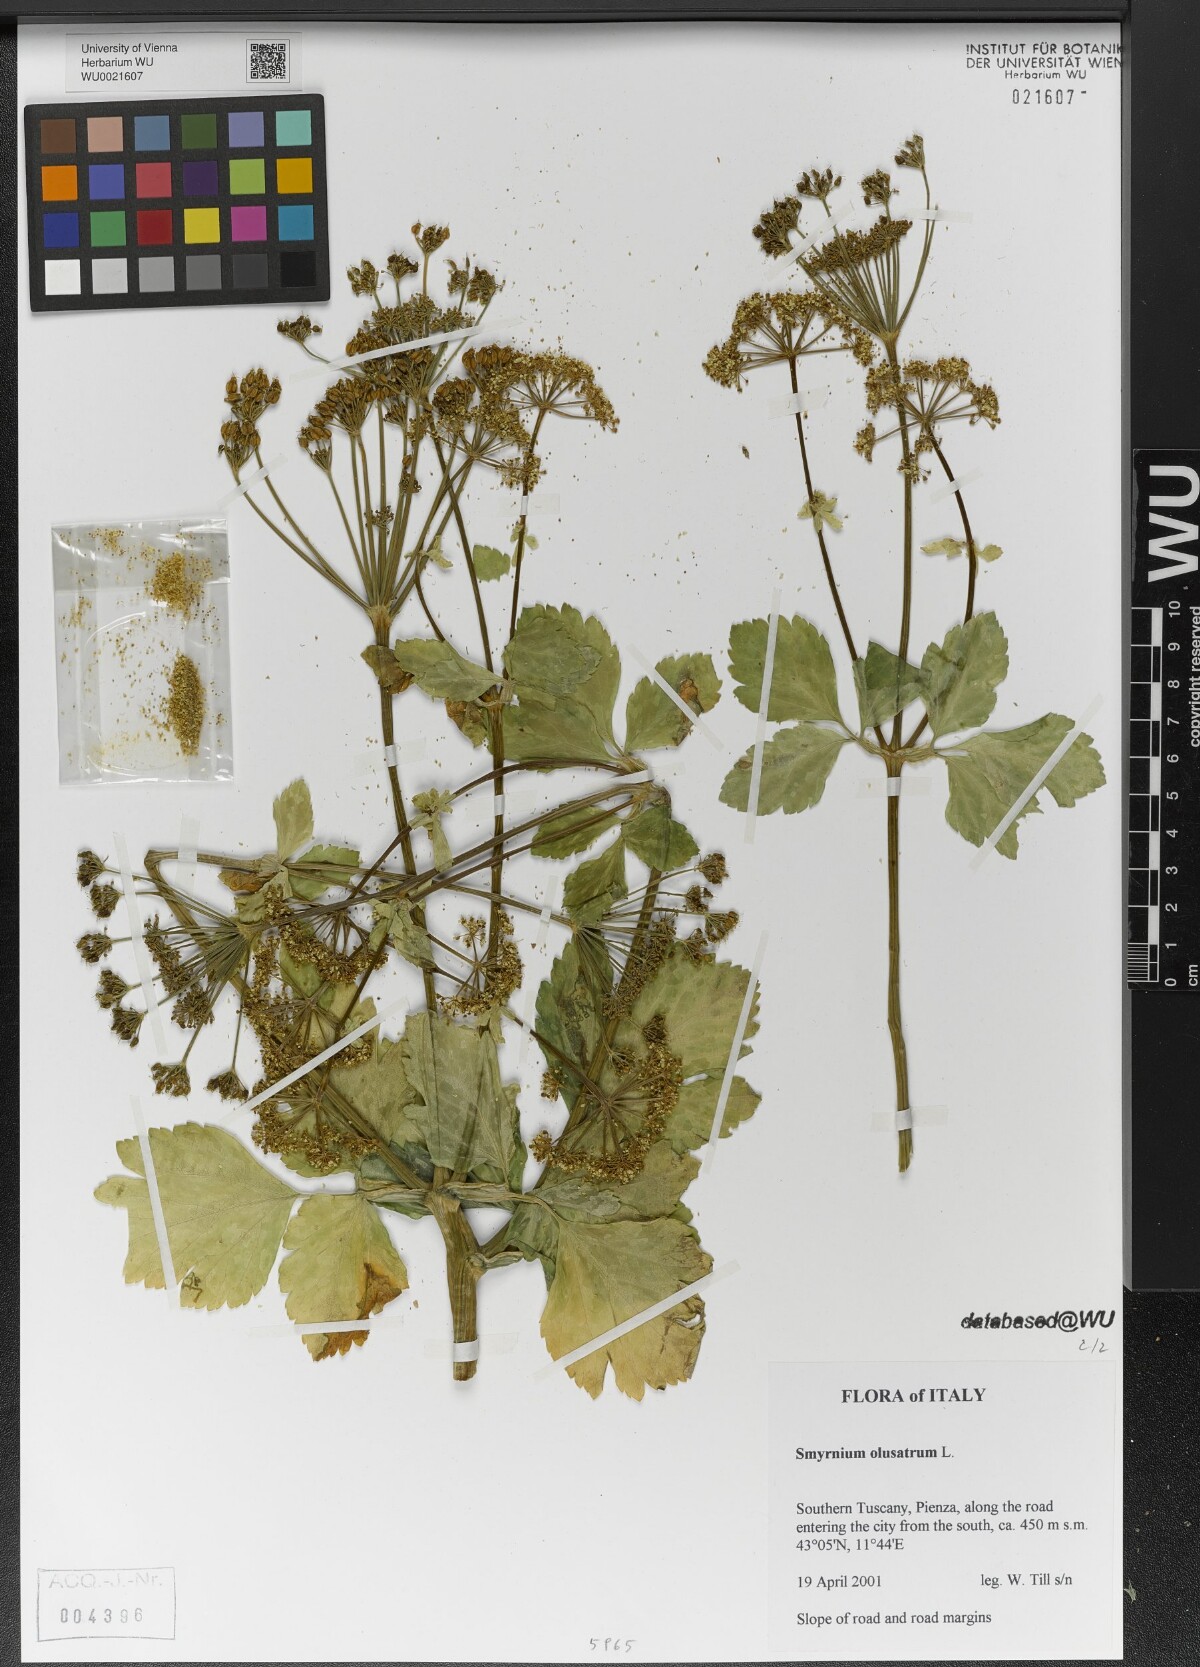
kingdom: Plantae
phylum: Tracheophyta
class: Magnoliopsida
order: Apiales
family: Apiaceae
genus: Smyrnium
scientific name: Smyrnium olusatrum
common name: Alexanders
